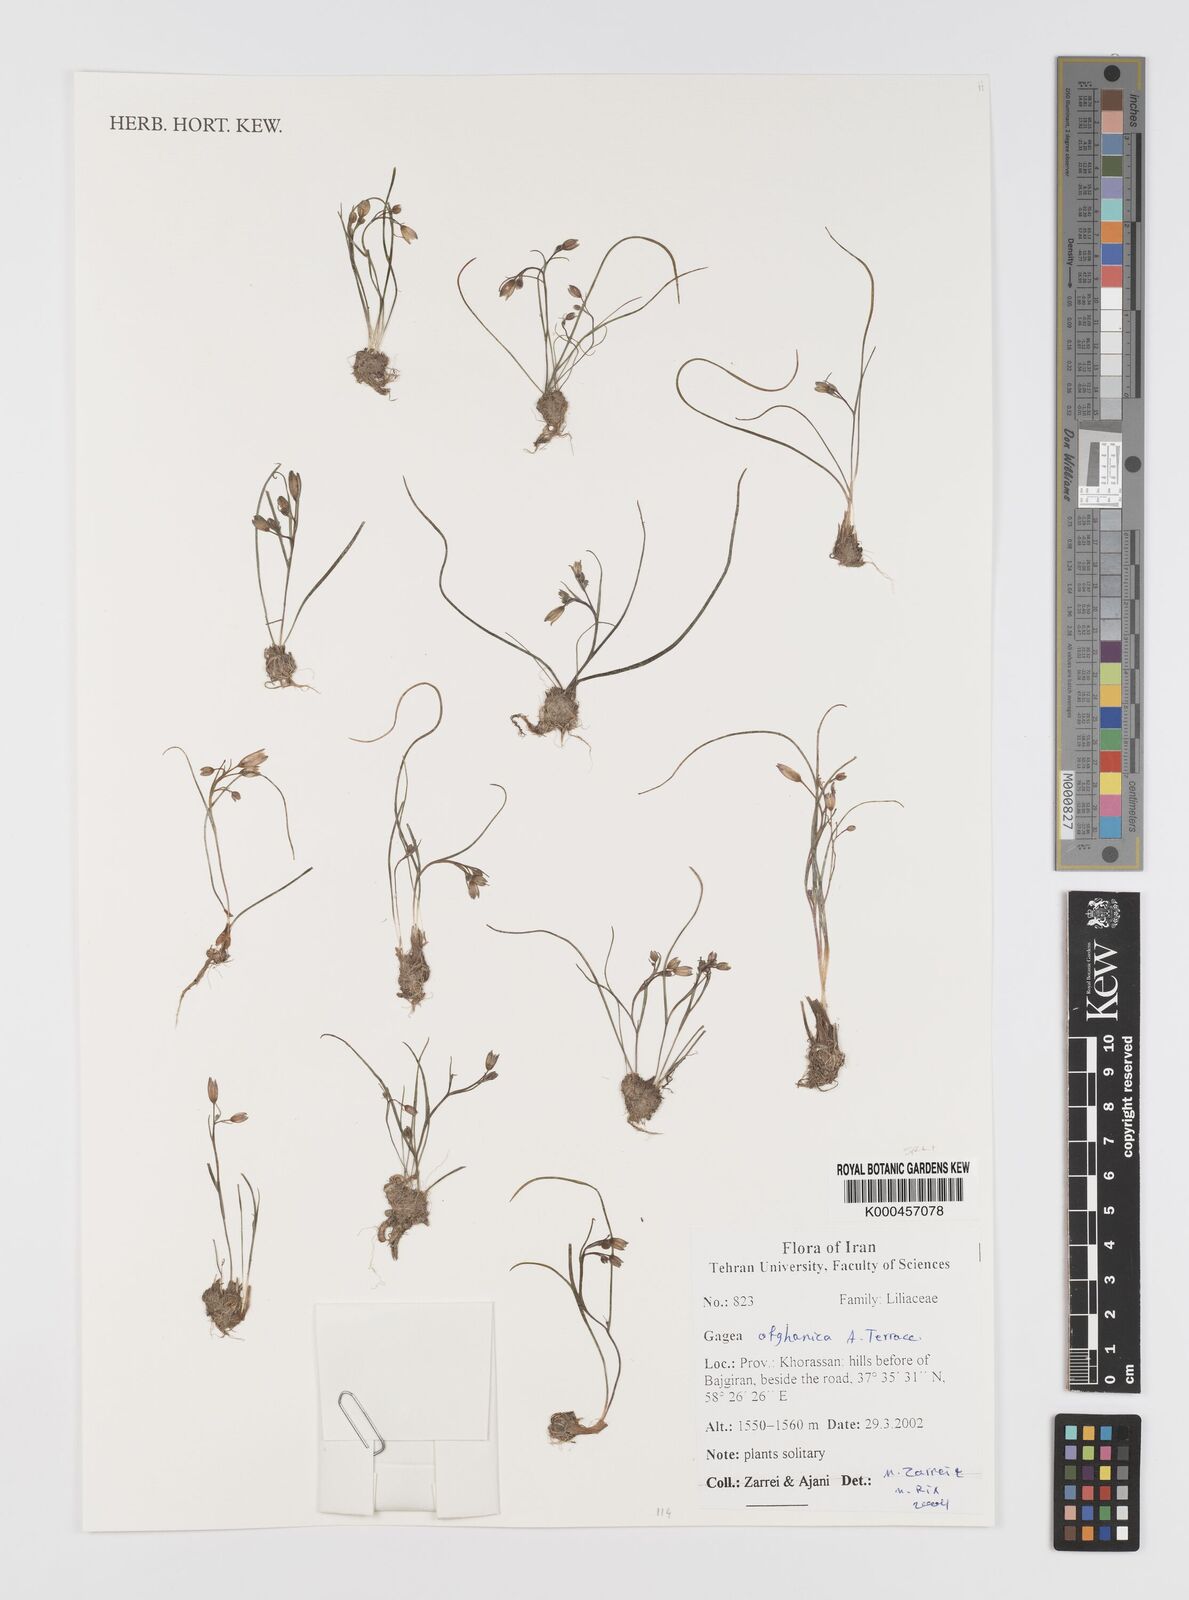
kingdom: Plantae
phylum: Tracheophyta
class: Liliopsida
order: Liliales
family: Liliaceae
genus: Gagea
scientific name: Gagea afghanica
